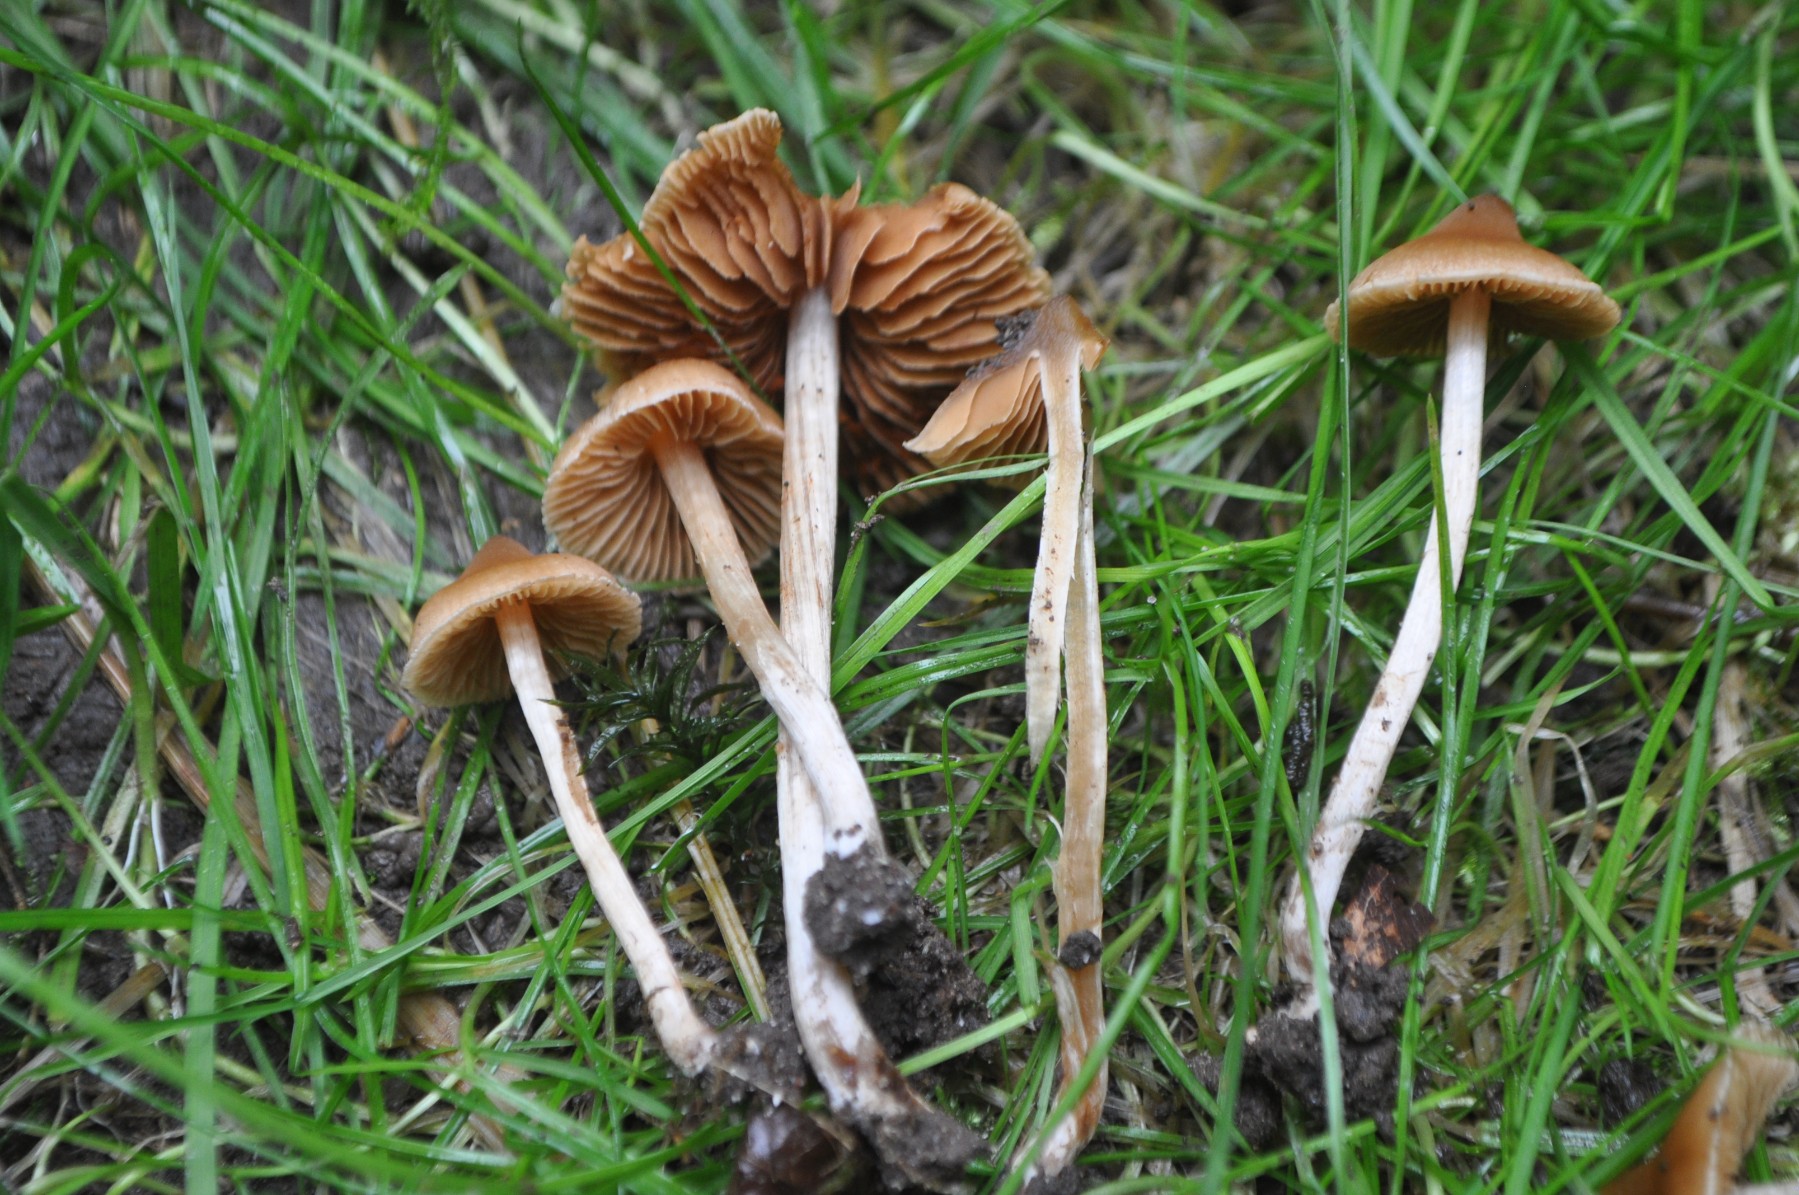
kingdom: Fungi
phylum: Basidiomycota
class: Agaricomycetes
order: Agaricales
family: Cortinariaceae
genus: Cortinarius
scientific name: Cortinarius incisior
